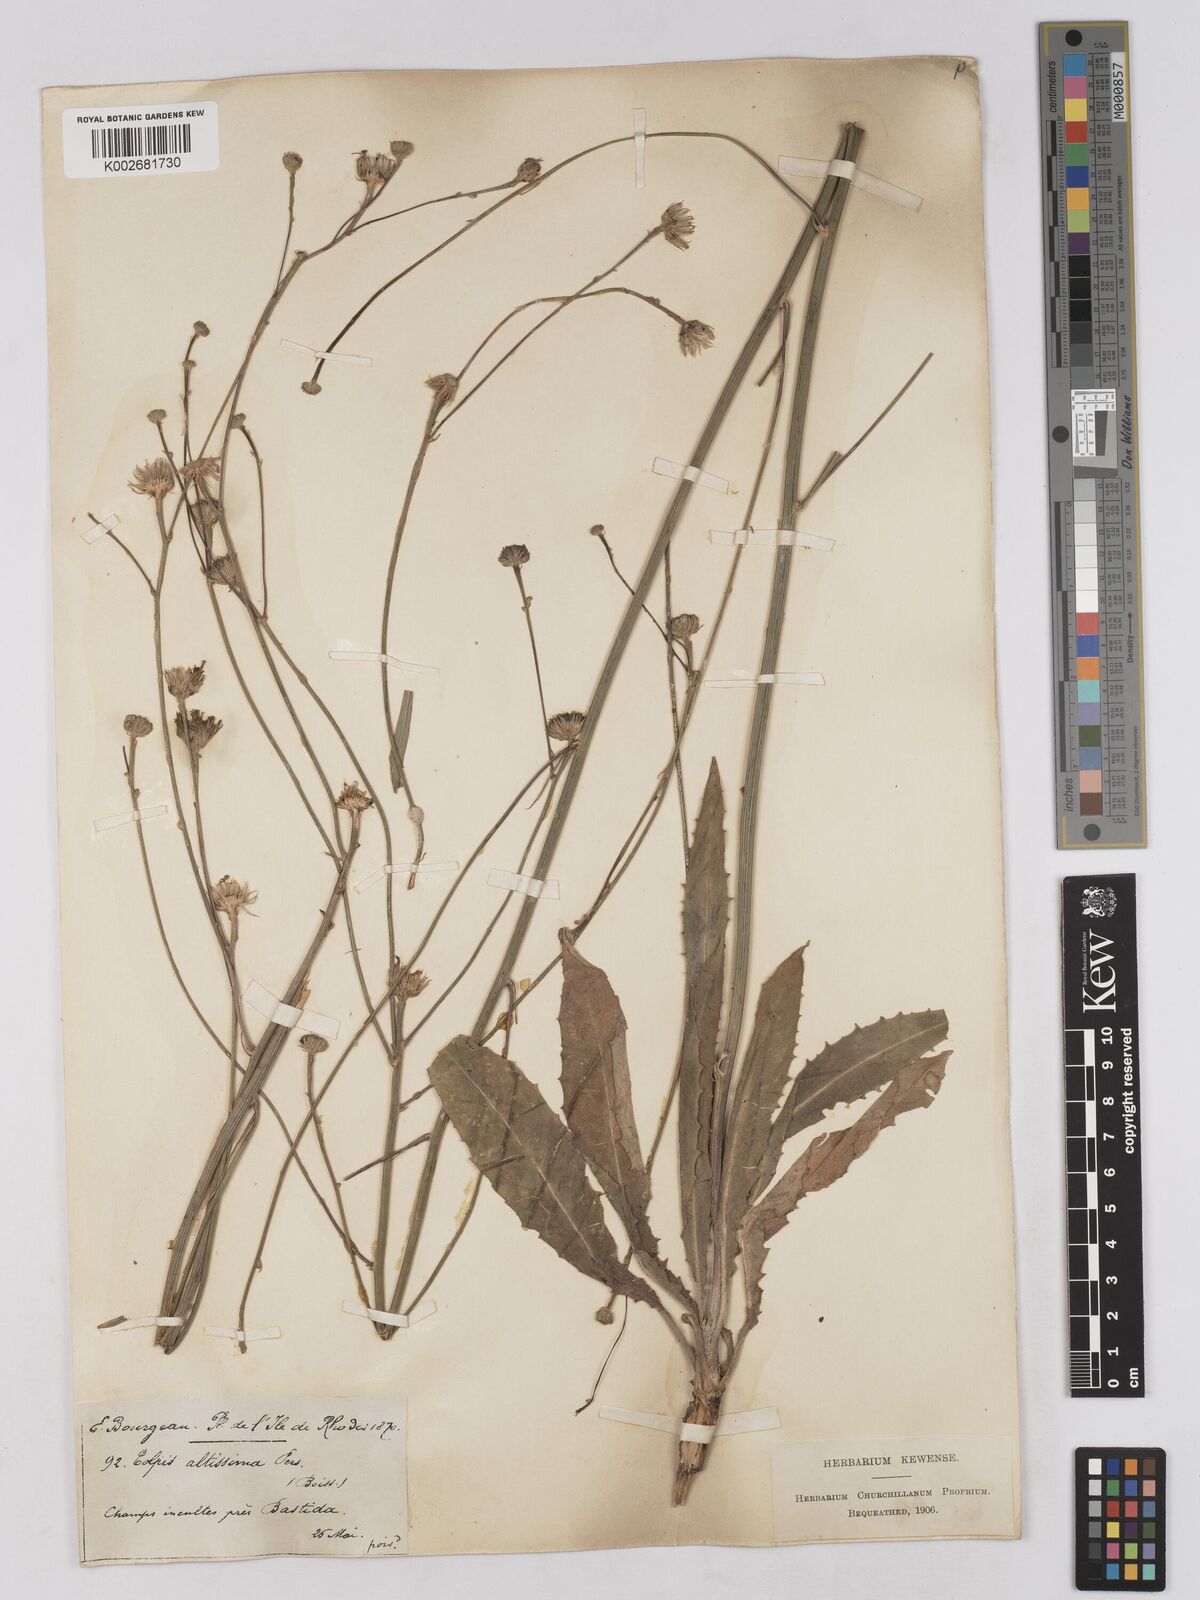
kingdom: Plantae
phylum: Tracheophyta
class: Magnoliopsida
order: Asterales
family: Asteraceae
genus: Tolpis
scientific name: Tolpis virgata
